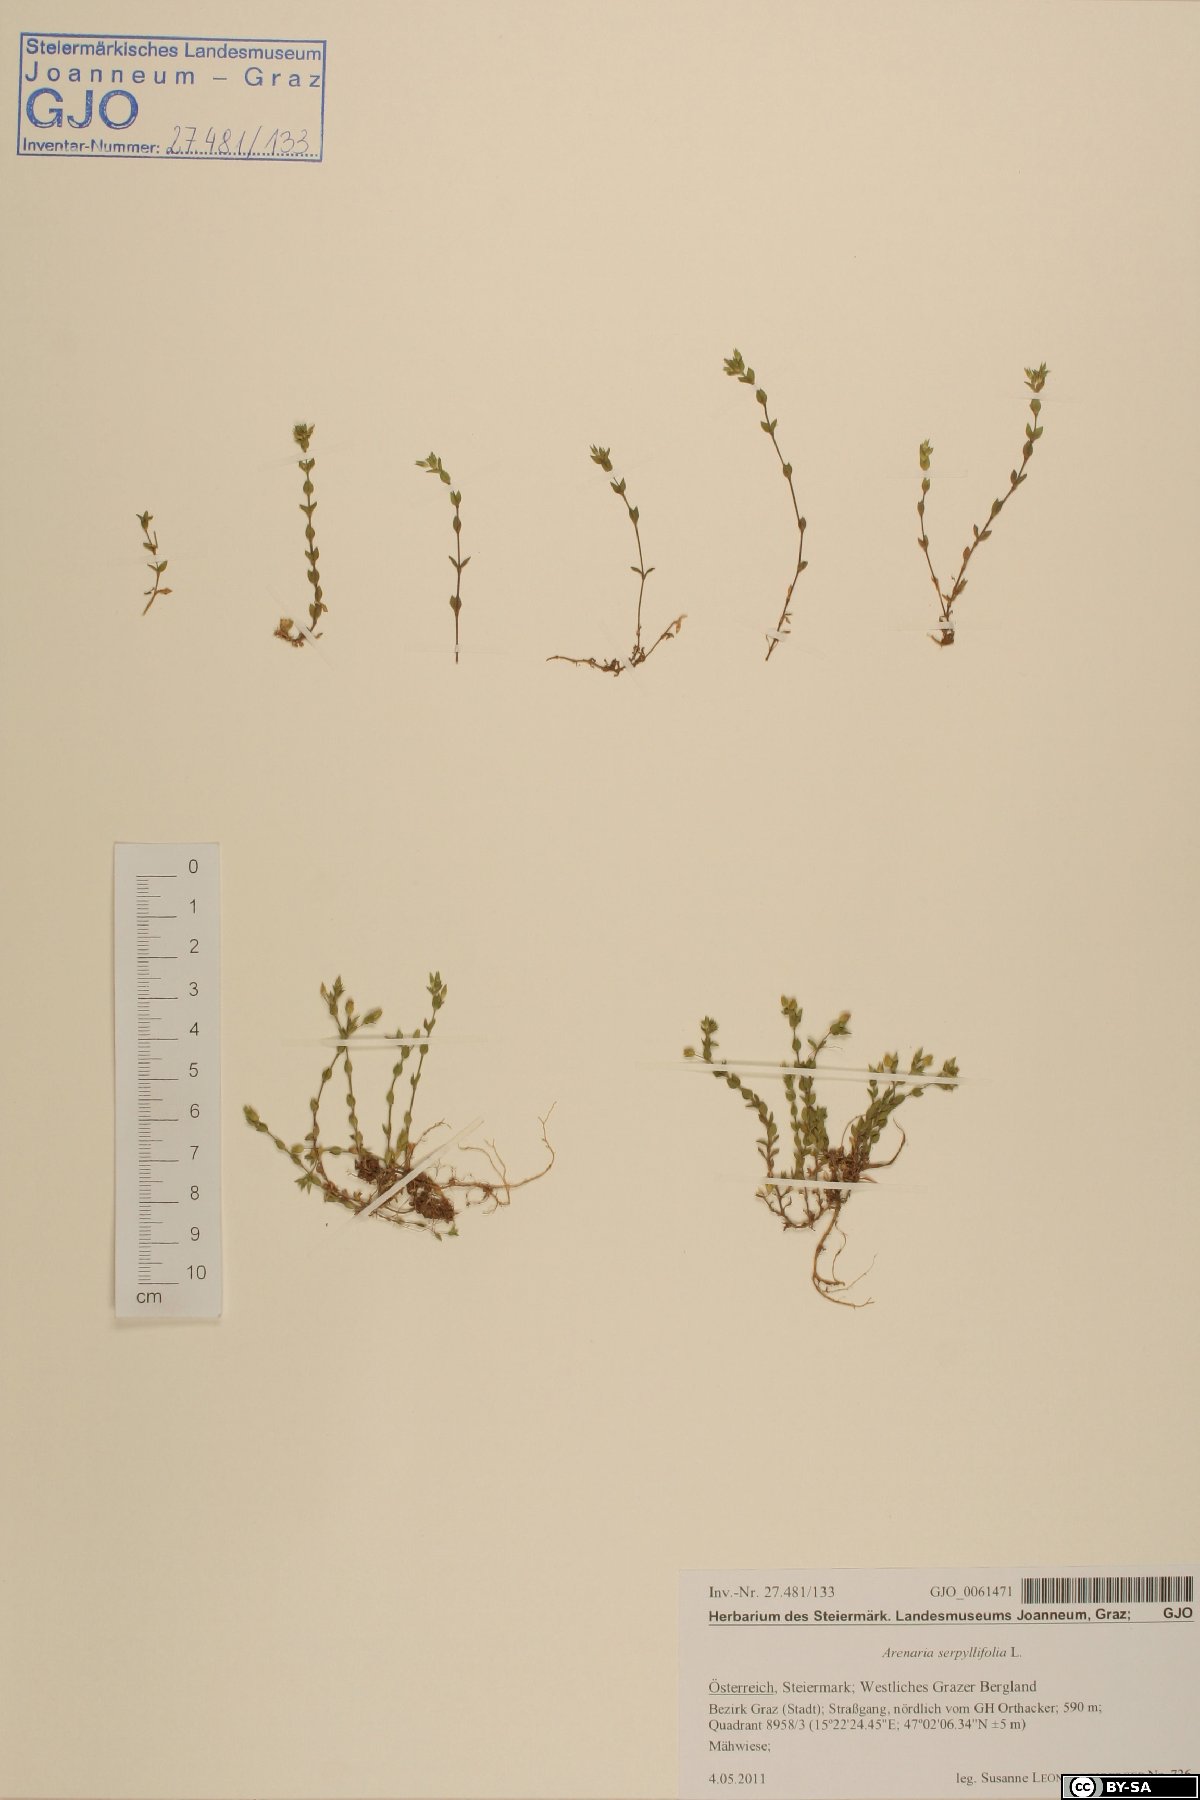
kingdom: Plantae
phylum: Tracheophyta
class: Magnoliopsida
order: Caryophyllales
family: Caryophyllaceae
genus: Arenaria
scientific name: Arenaria serpyllifolia
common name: Thyme-leaved sandwort
